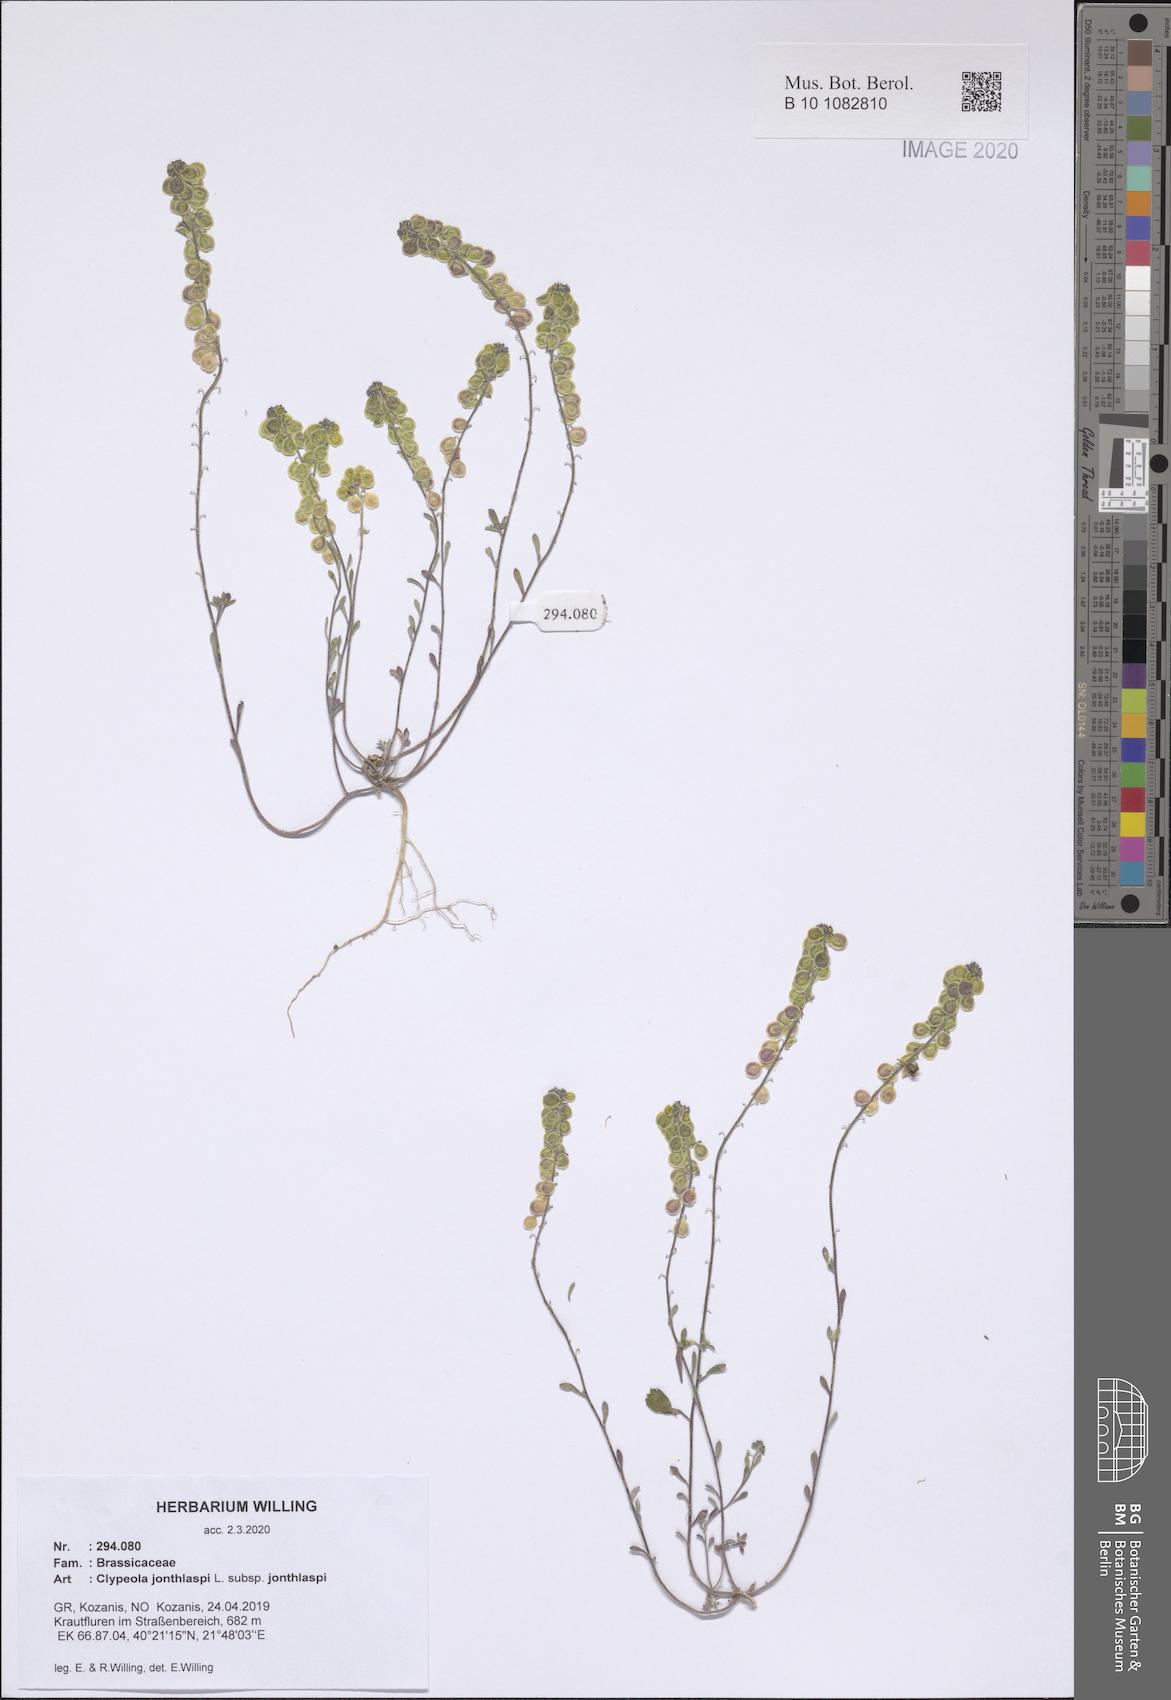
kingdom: Plantae
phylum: Tracheophyta
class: Magnoliopsida
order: Brassicales
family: Brassicaceae
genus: Clypeola
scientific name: Clypeola jonthlaspi
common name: Disk cress
